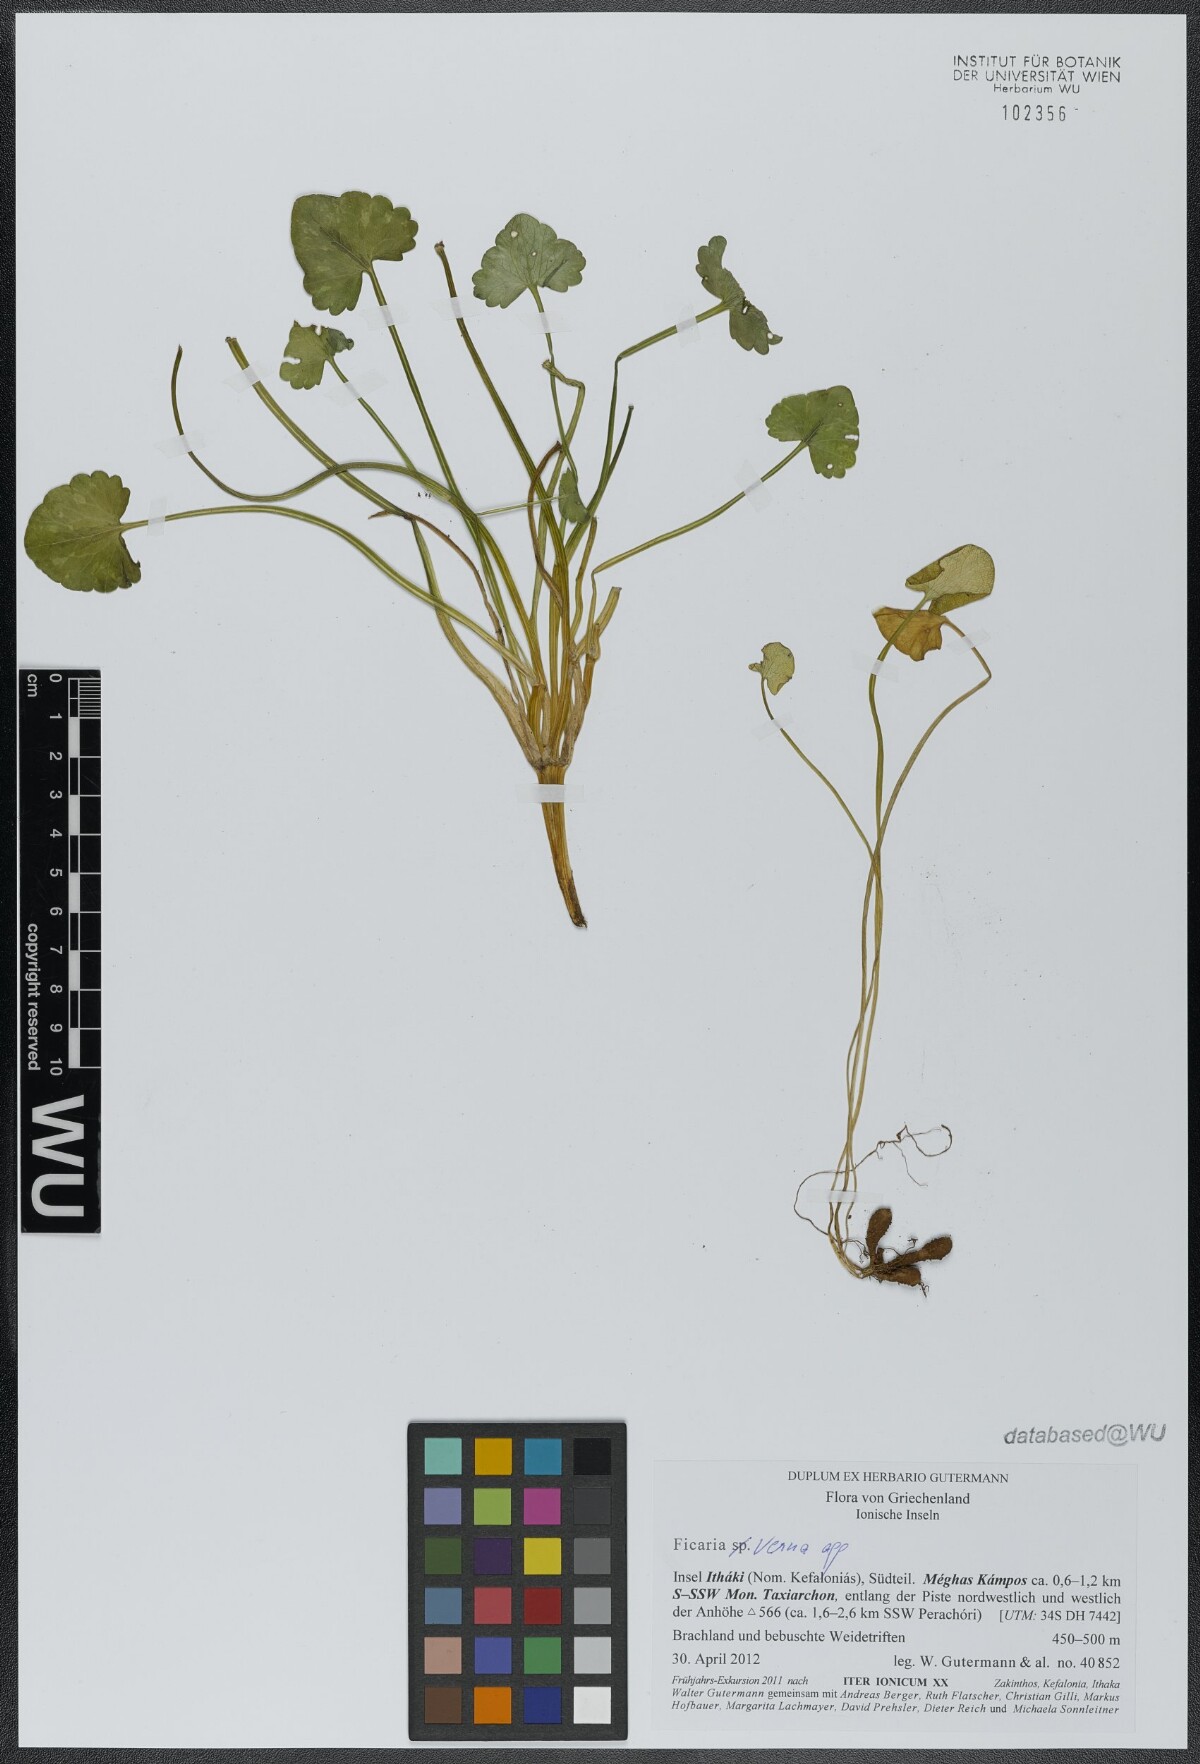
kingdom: Plantae
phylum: Tracheophyta
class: Magnoliopsida
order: Ranunculales
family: Ranunculaceae
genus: Ficaria
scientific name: Ficaria verna
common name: Lesser celandine
